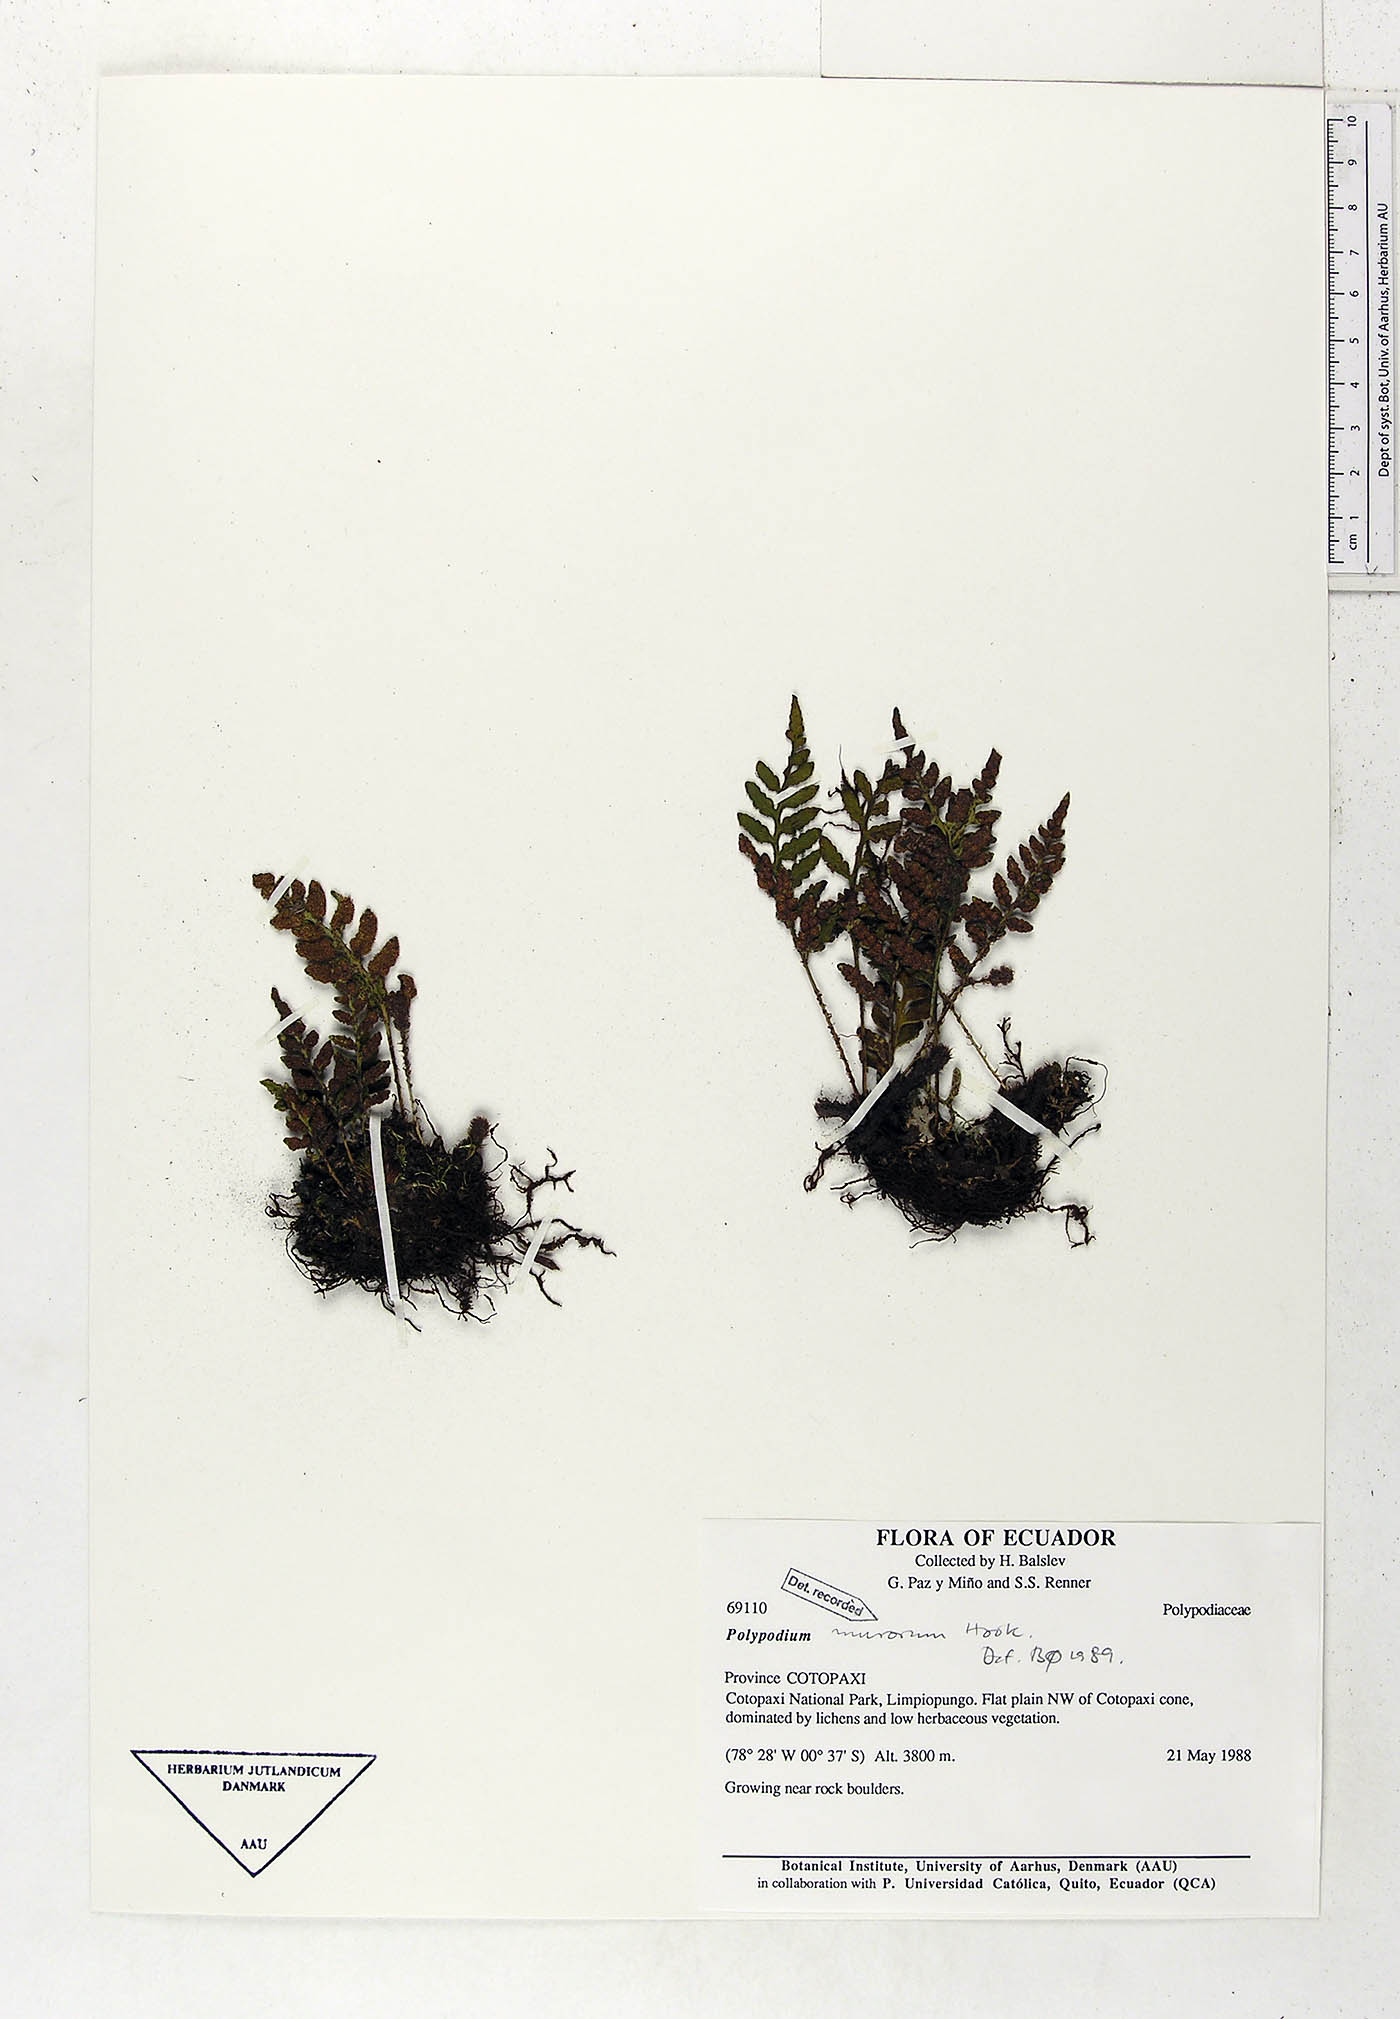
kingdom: Plantae
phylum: Tracheophyta
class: Polypodiopsida
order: Polypodiales
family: Polypodiaceae
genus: Pleopeltis
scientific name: Pleopeltis murora
